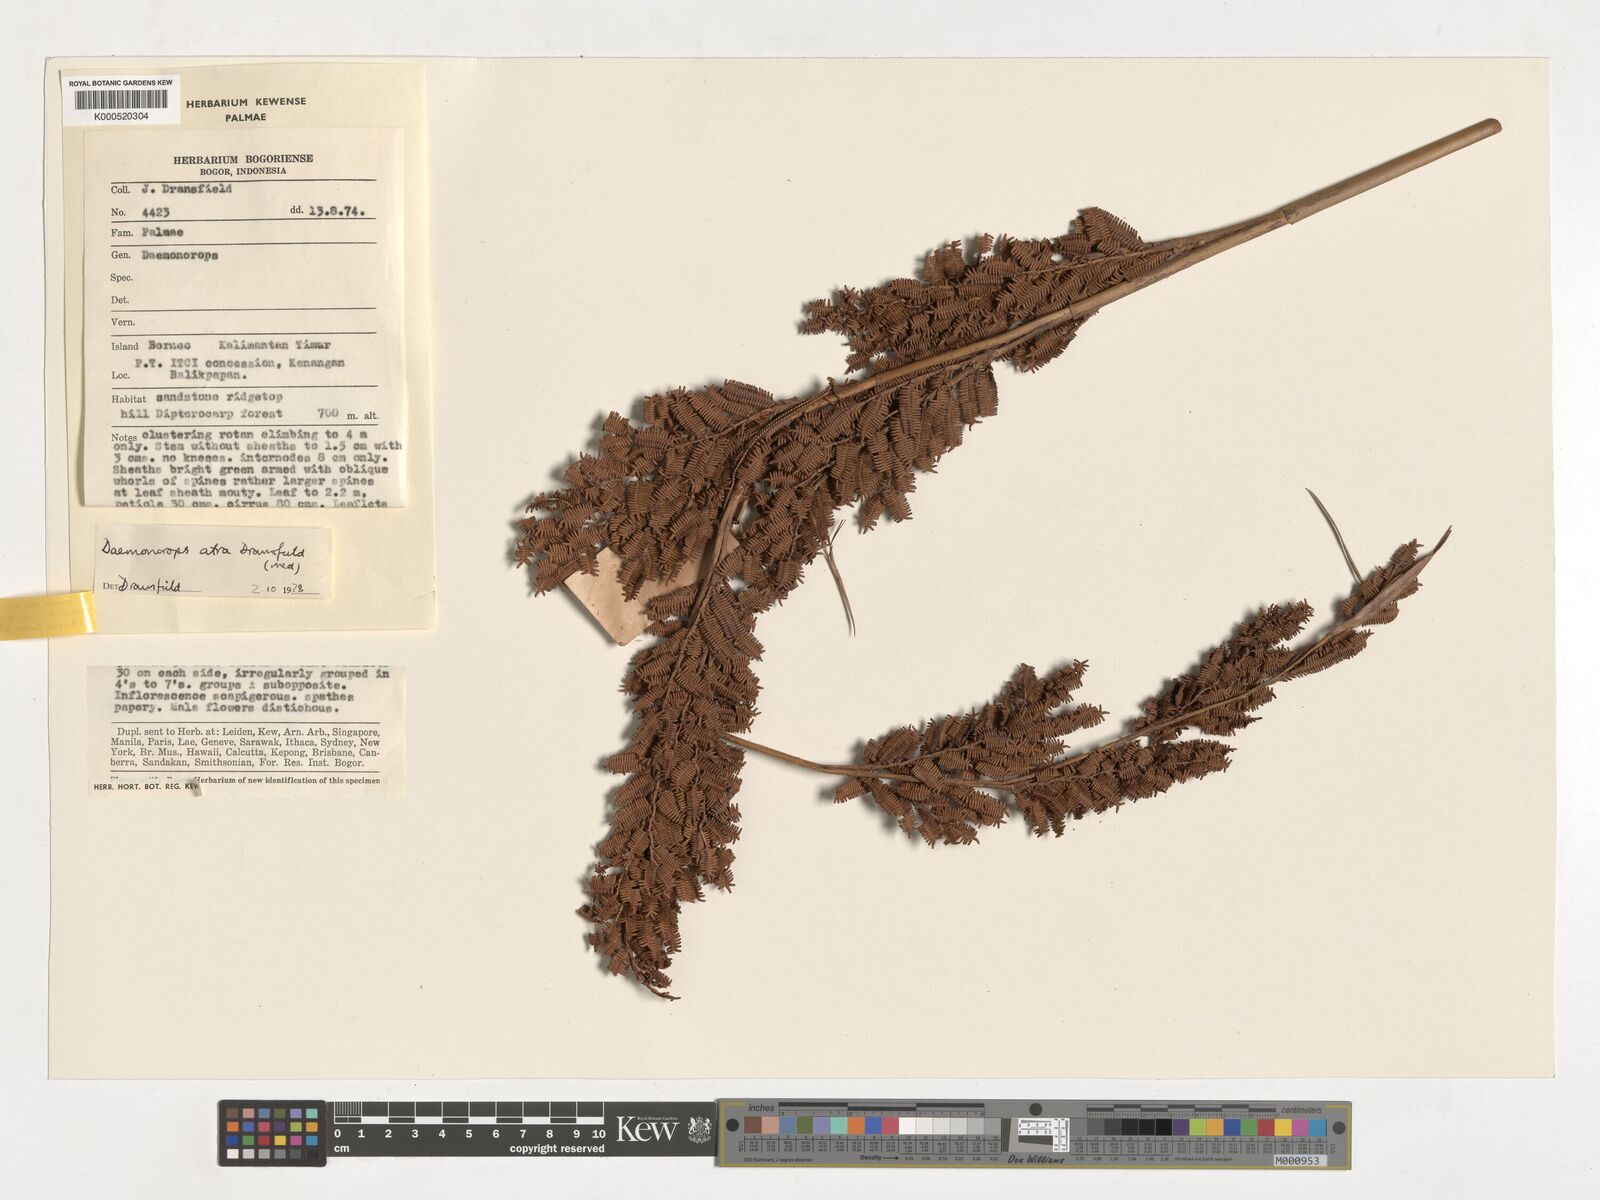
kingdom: Plantae
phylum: Tracheophyta
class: Liliopsida
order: Arecales
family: Arecaceae
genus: Calamus
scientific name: Calamus ater
